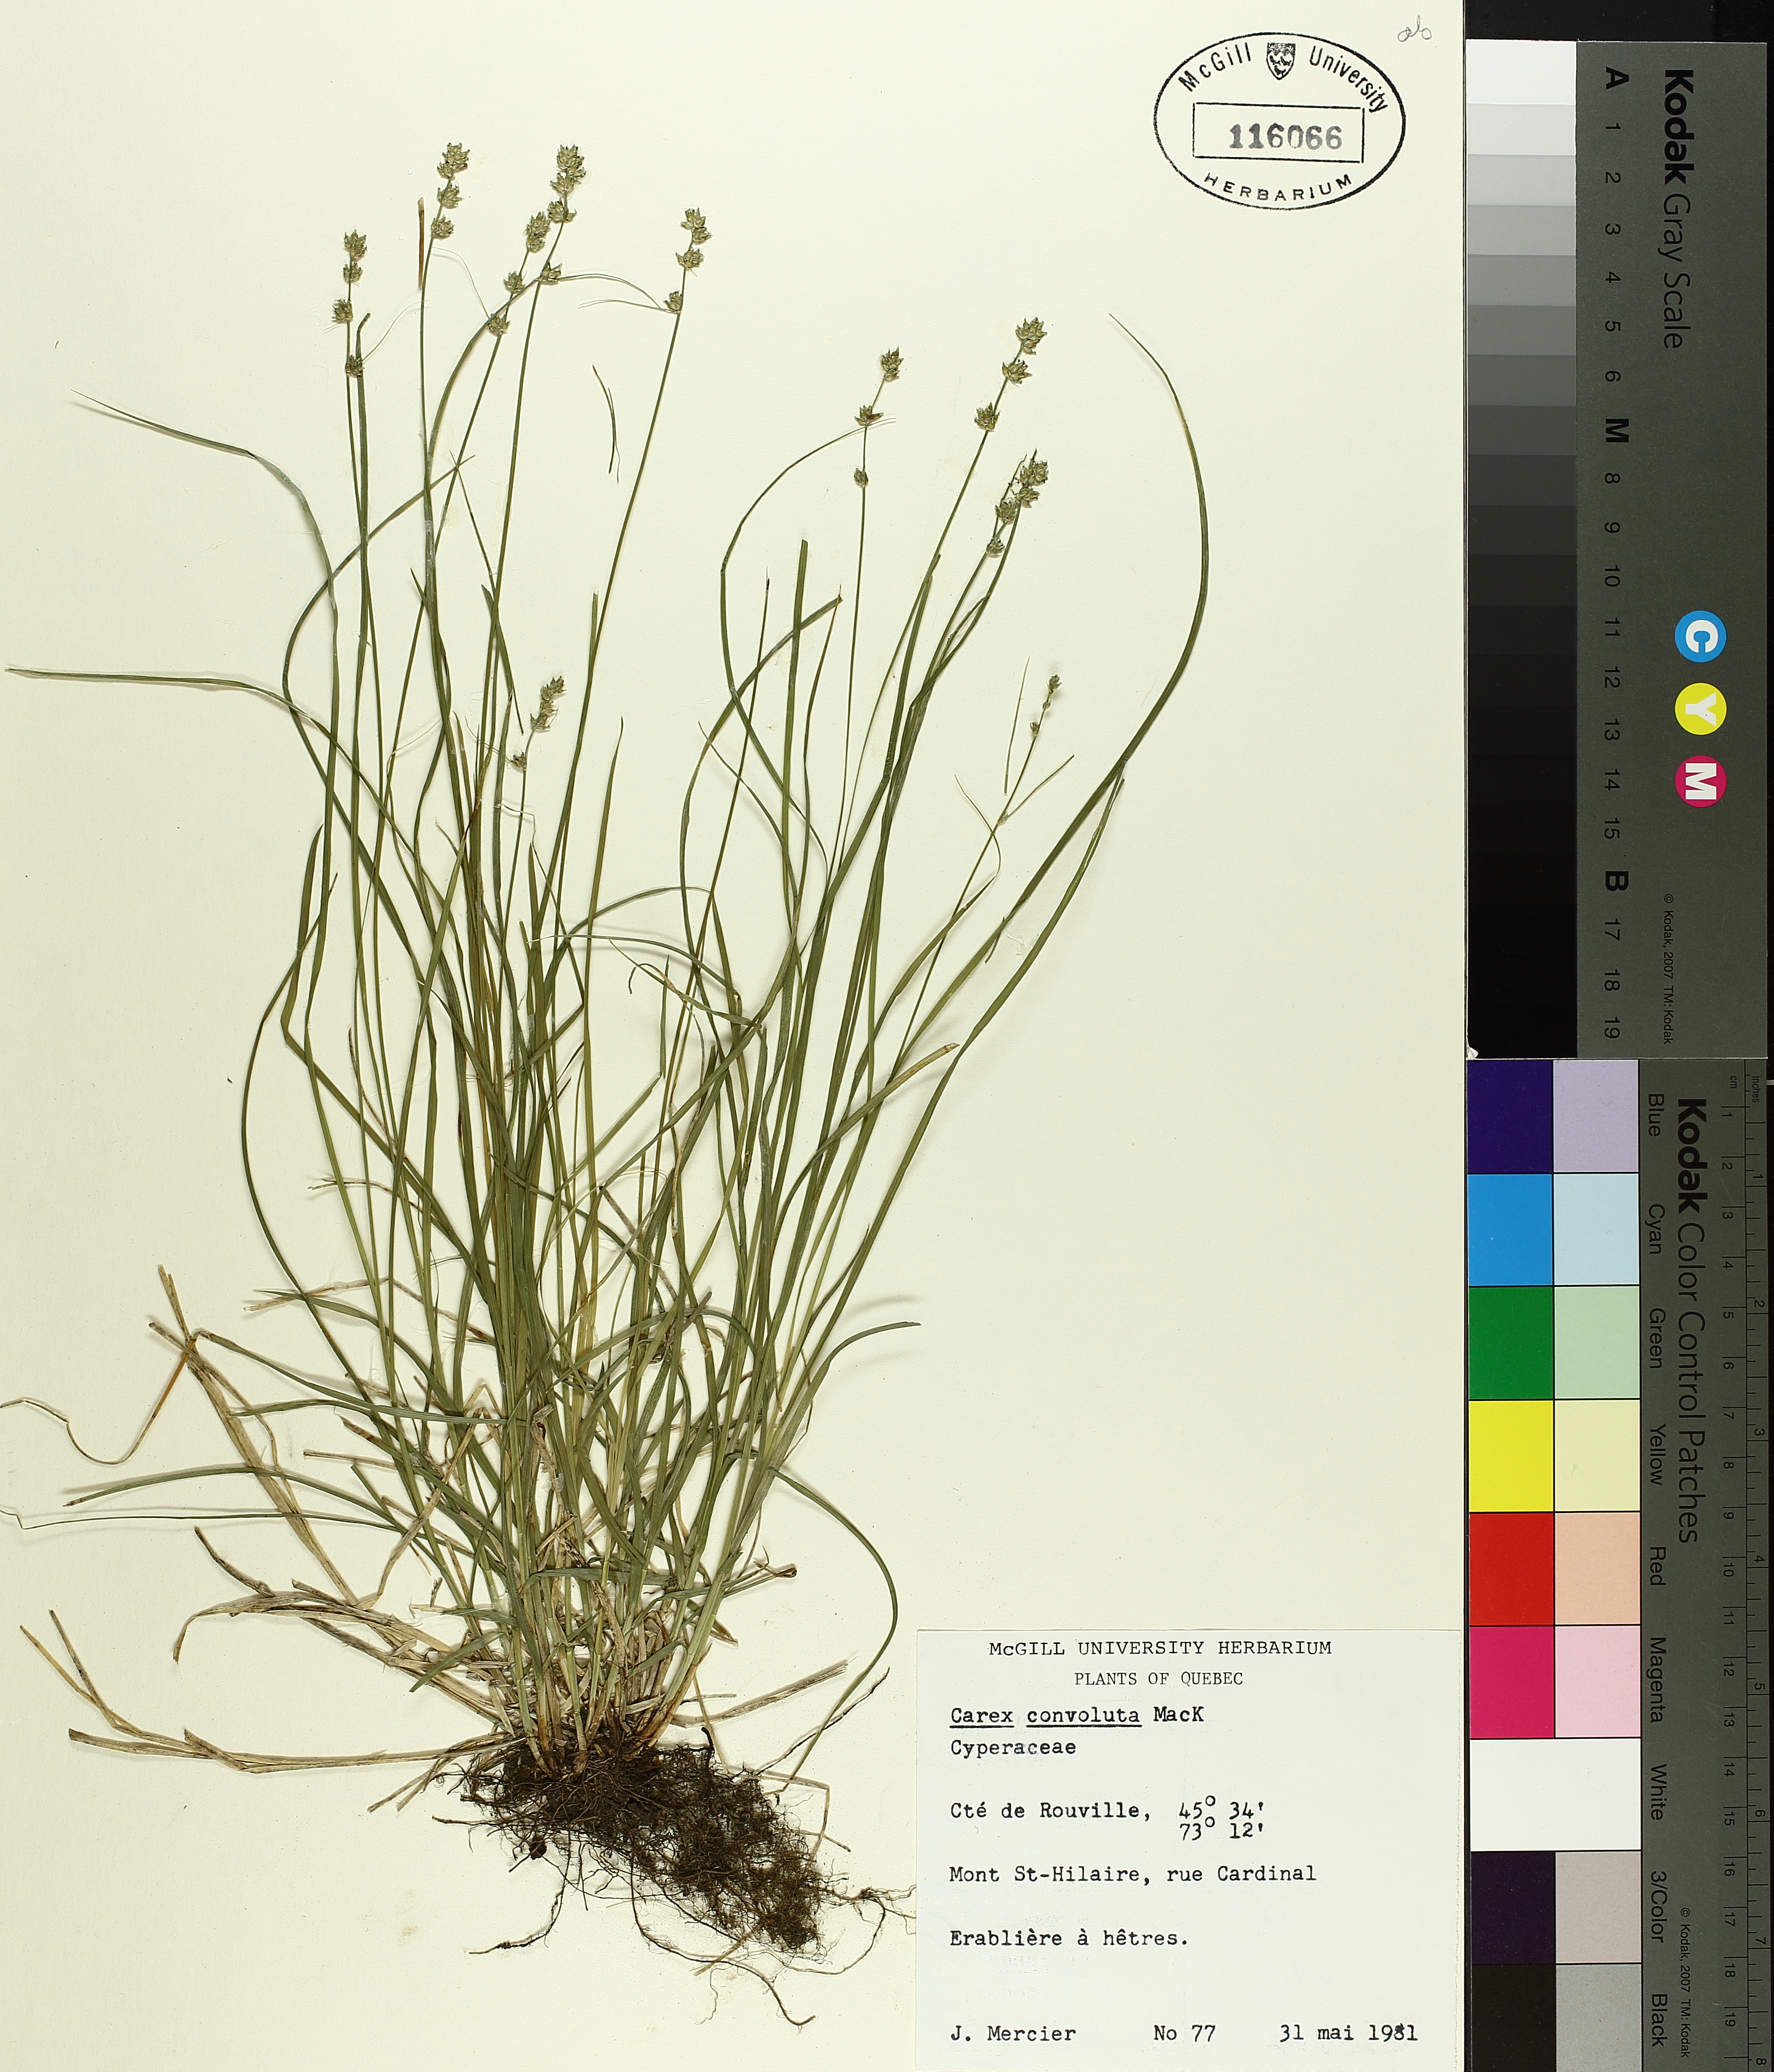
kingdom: Plantae
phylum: Tracheophyta
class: Liliopsida
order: Poales
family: Cyperaceae
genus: Carex
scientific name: Carex rosea
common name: Curly-styled wood sedge
